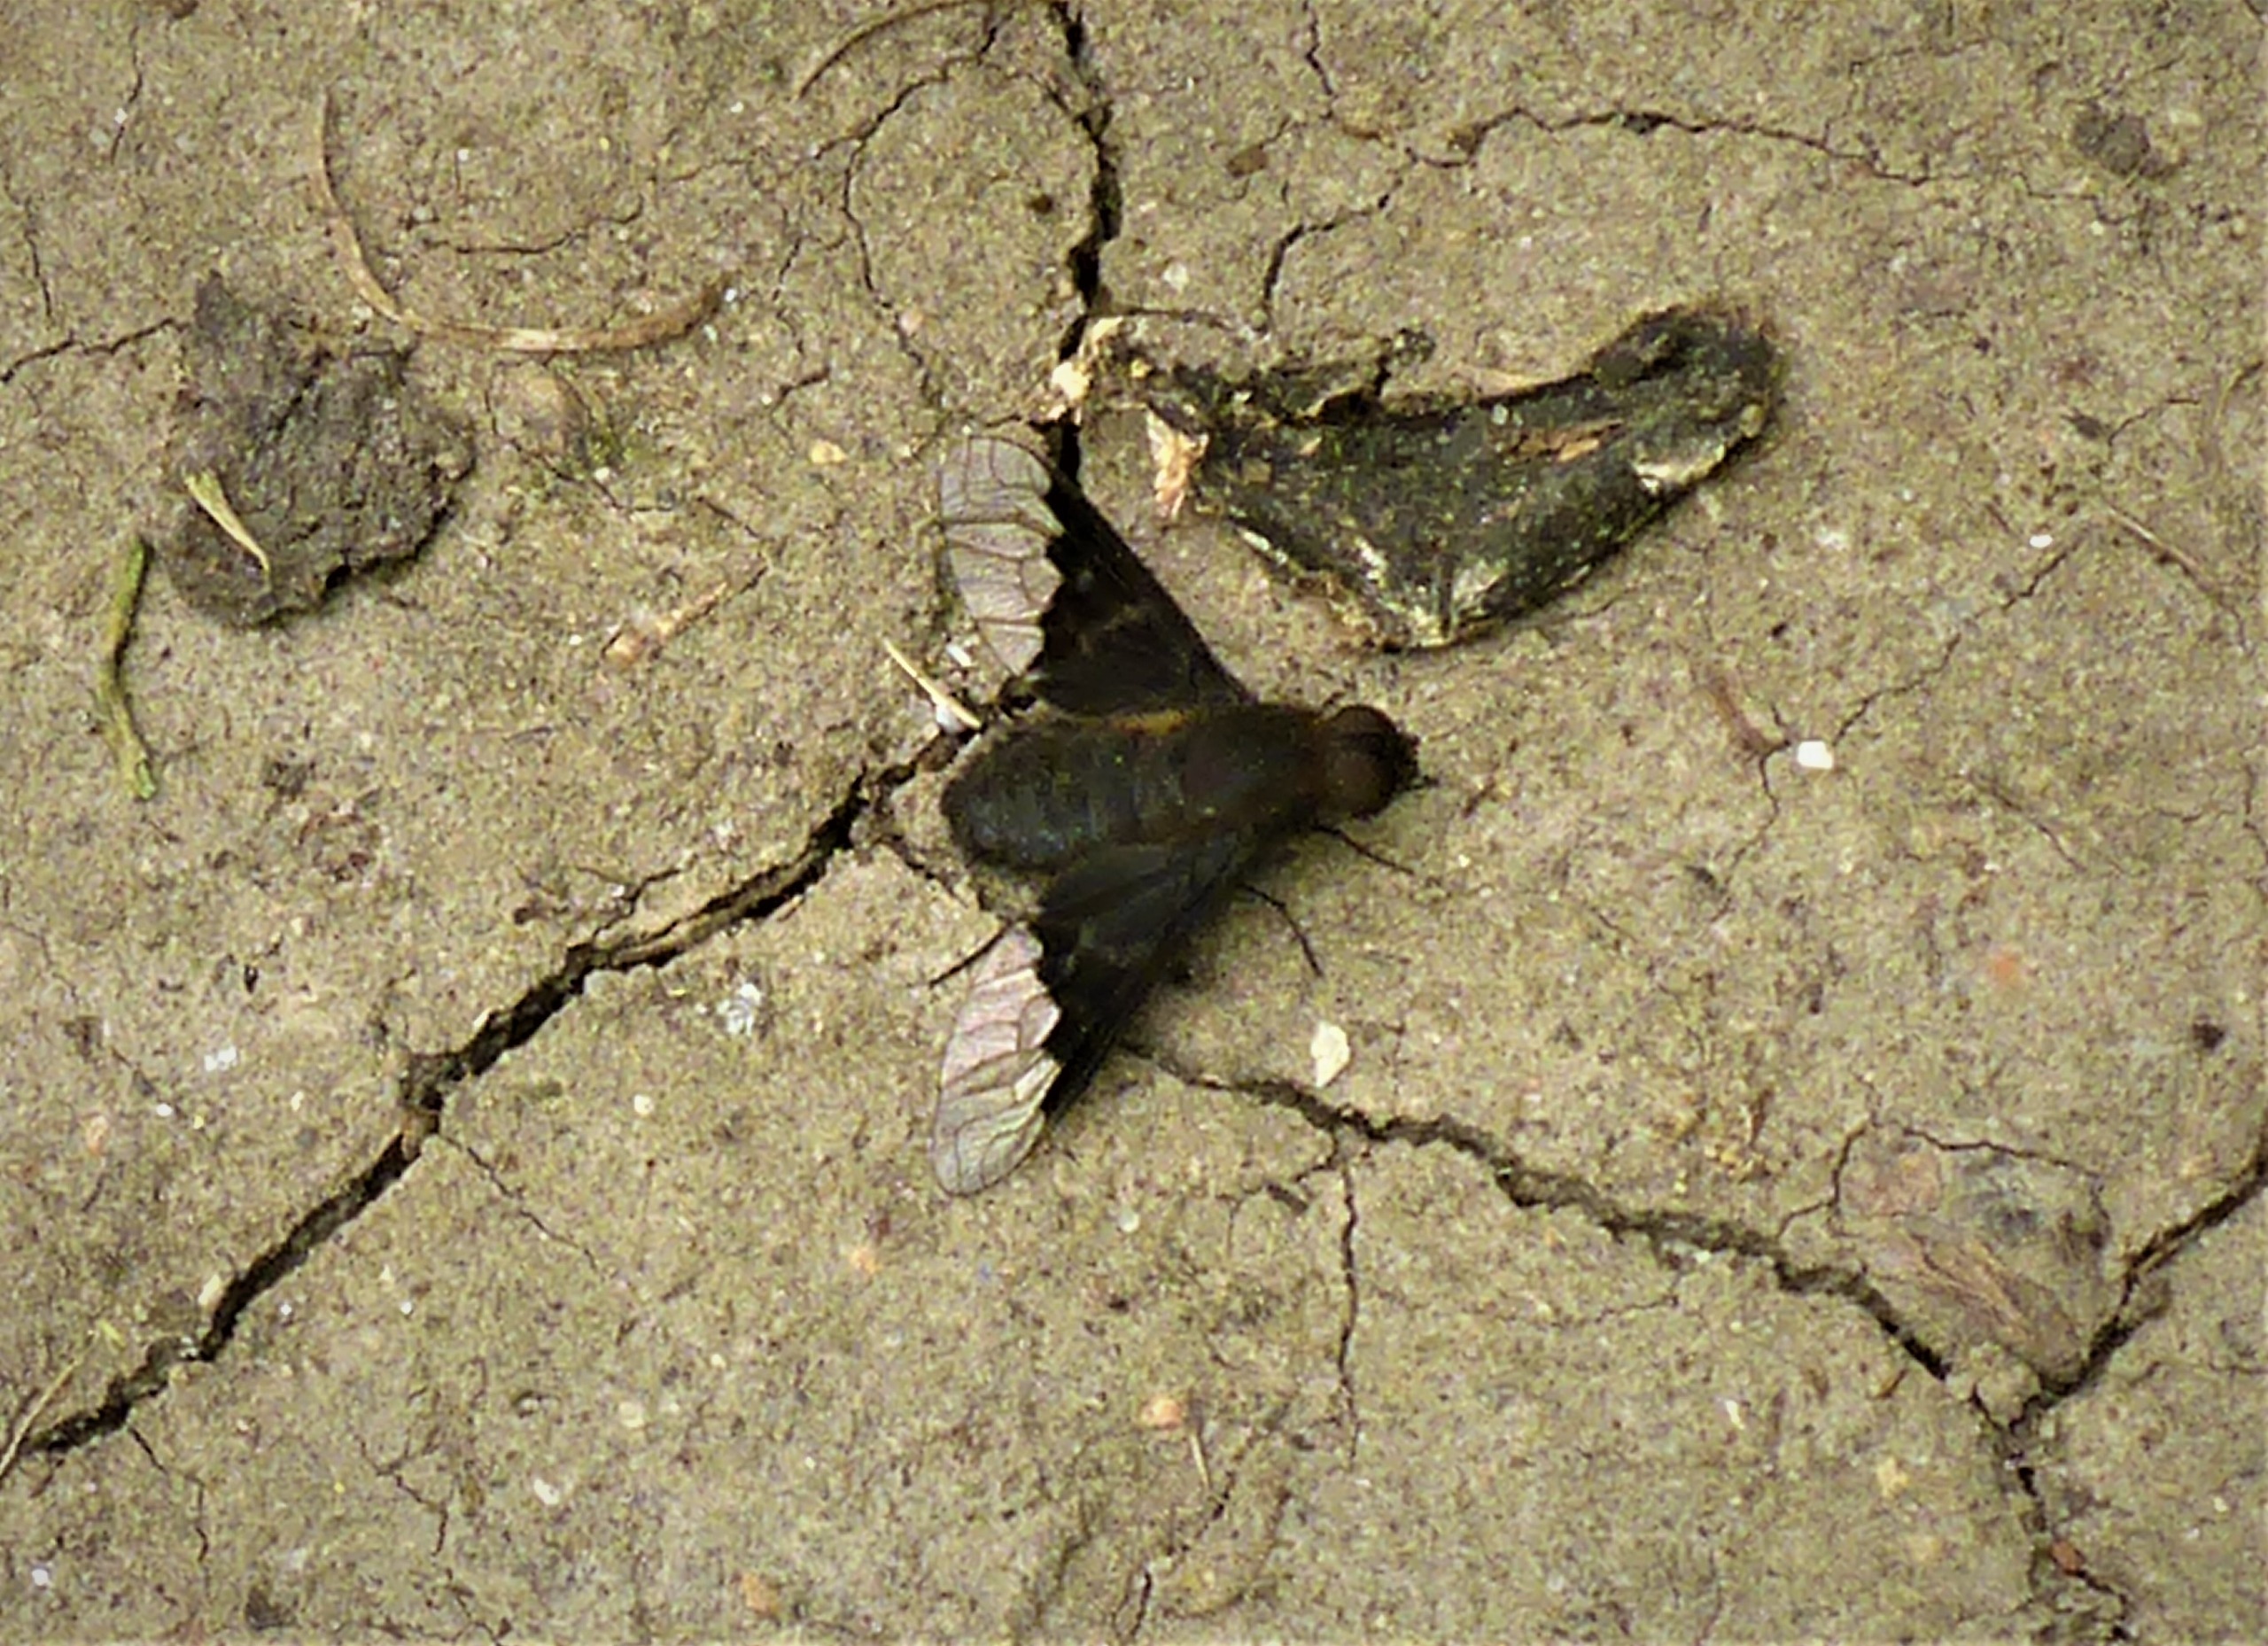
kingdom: Animalia
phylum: Arthropoda
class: Insecta
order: Diptera
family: Bombyliidae
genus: Hemipenthes
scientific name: Hemipenthes morio
